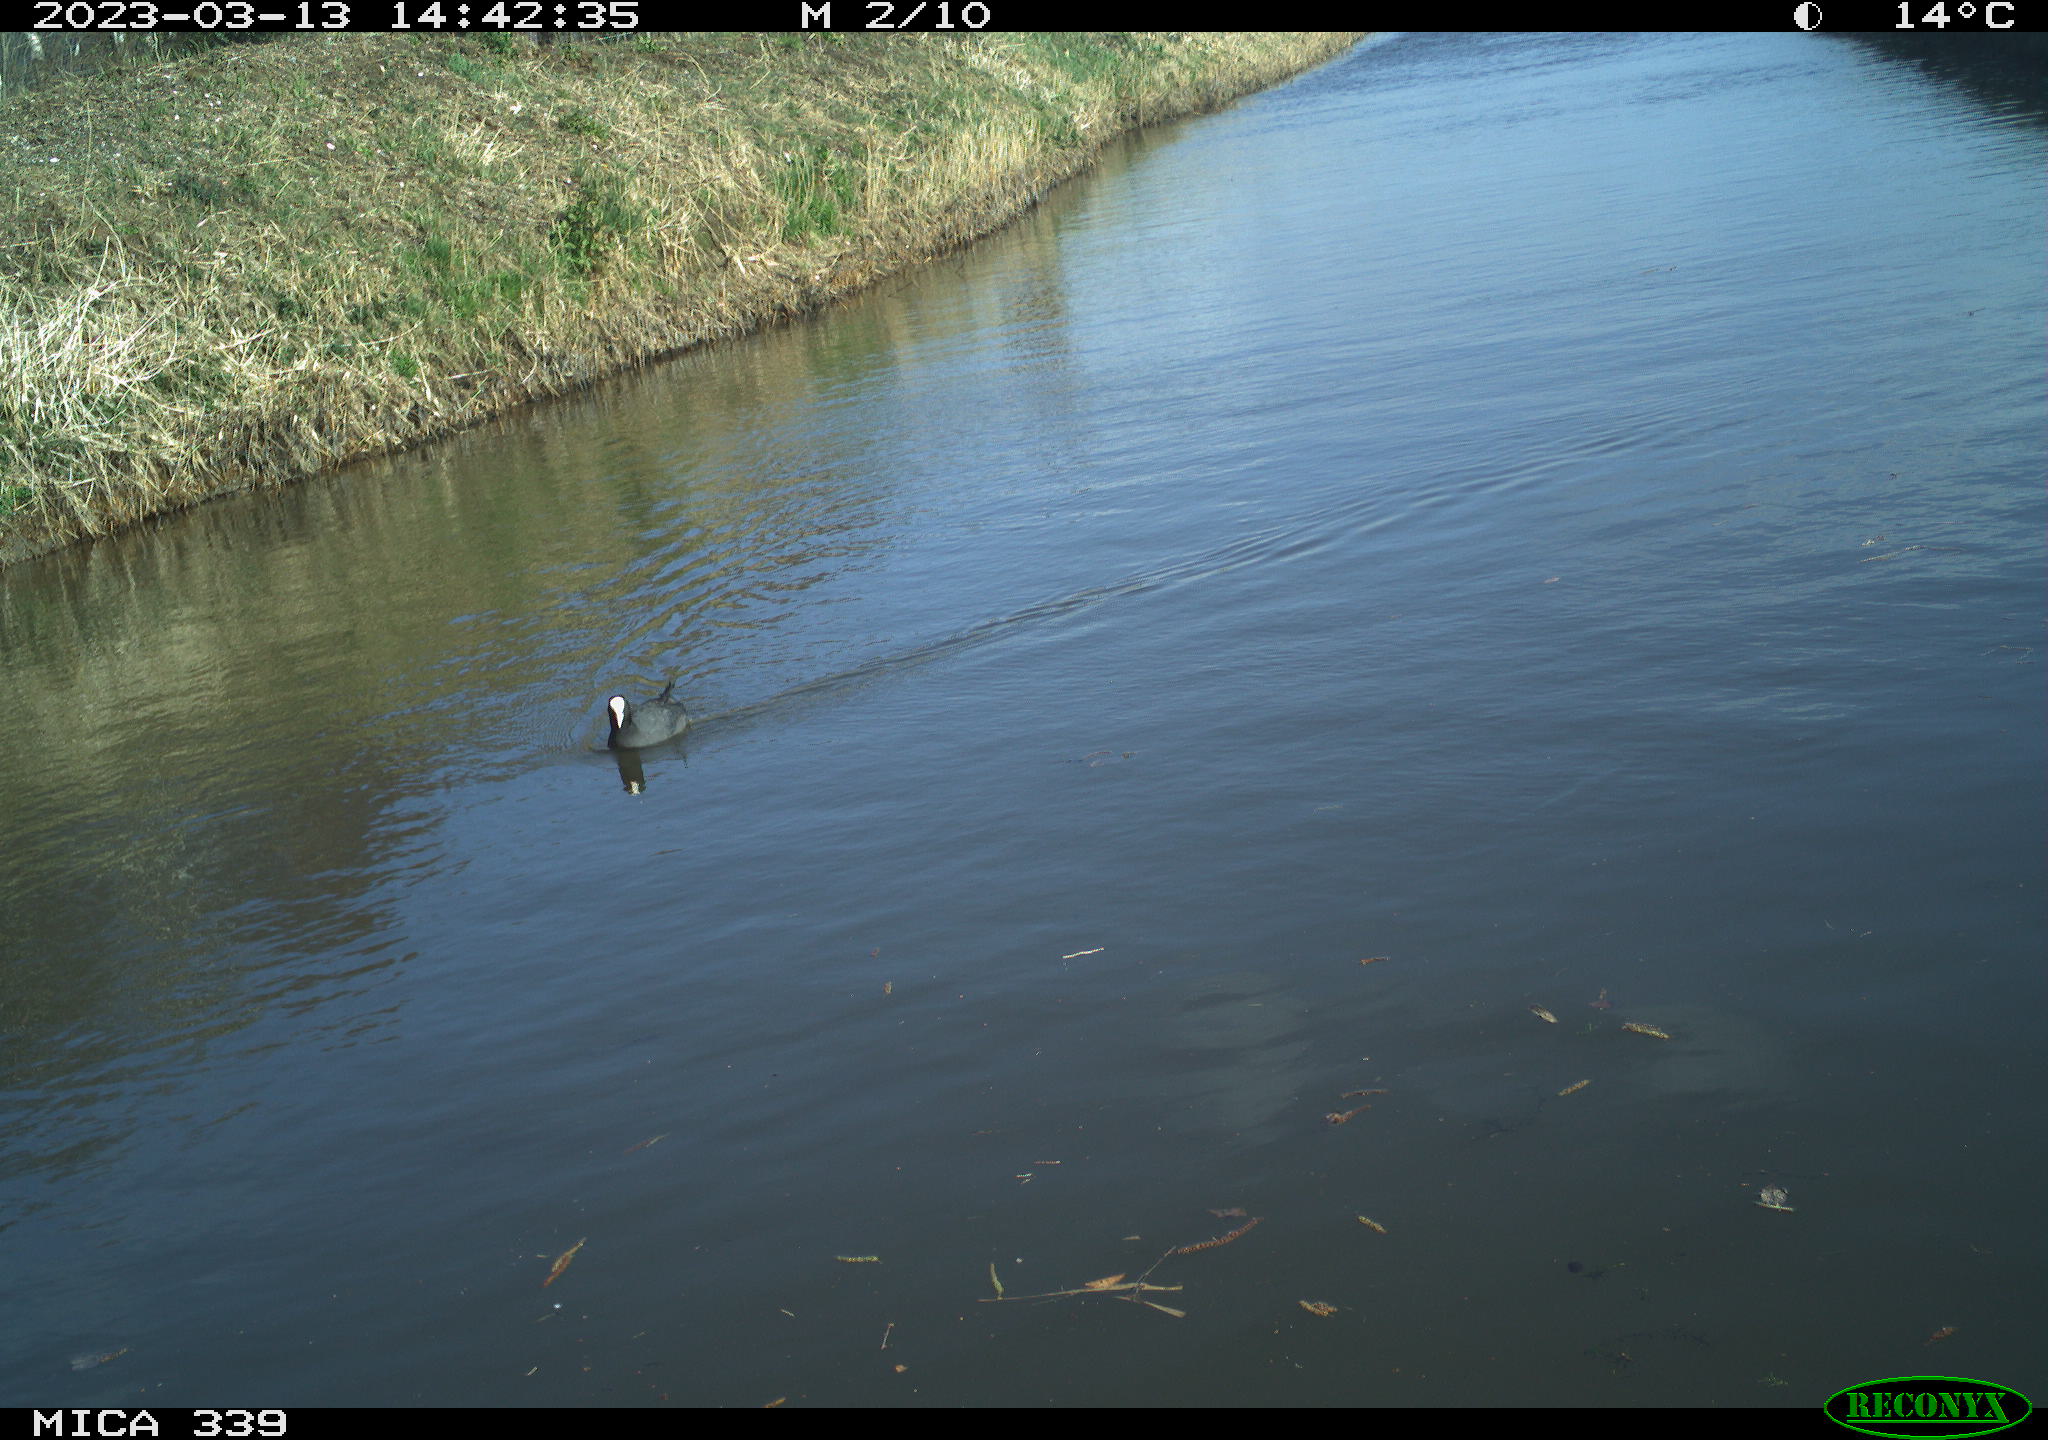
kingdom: Animalia
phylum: Chordata
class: Aves
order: Gruiformes
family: Rallidae
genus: Fulica
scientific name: Fulica atra
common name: Eurasian coot
